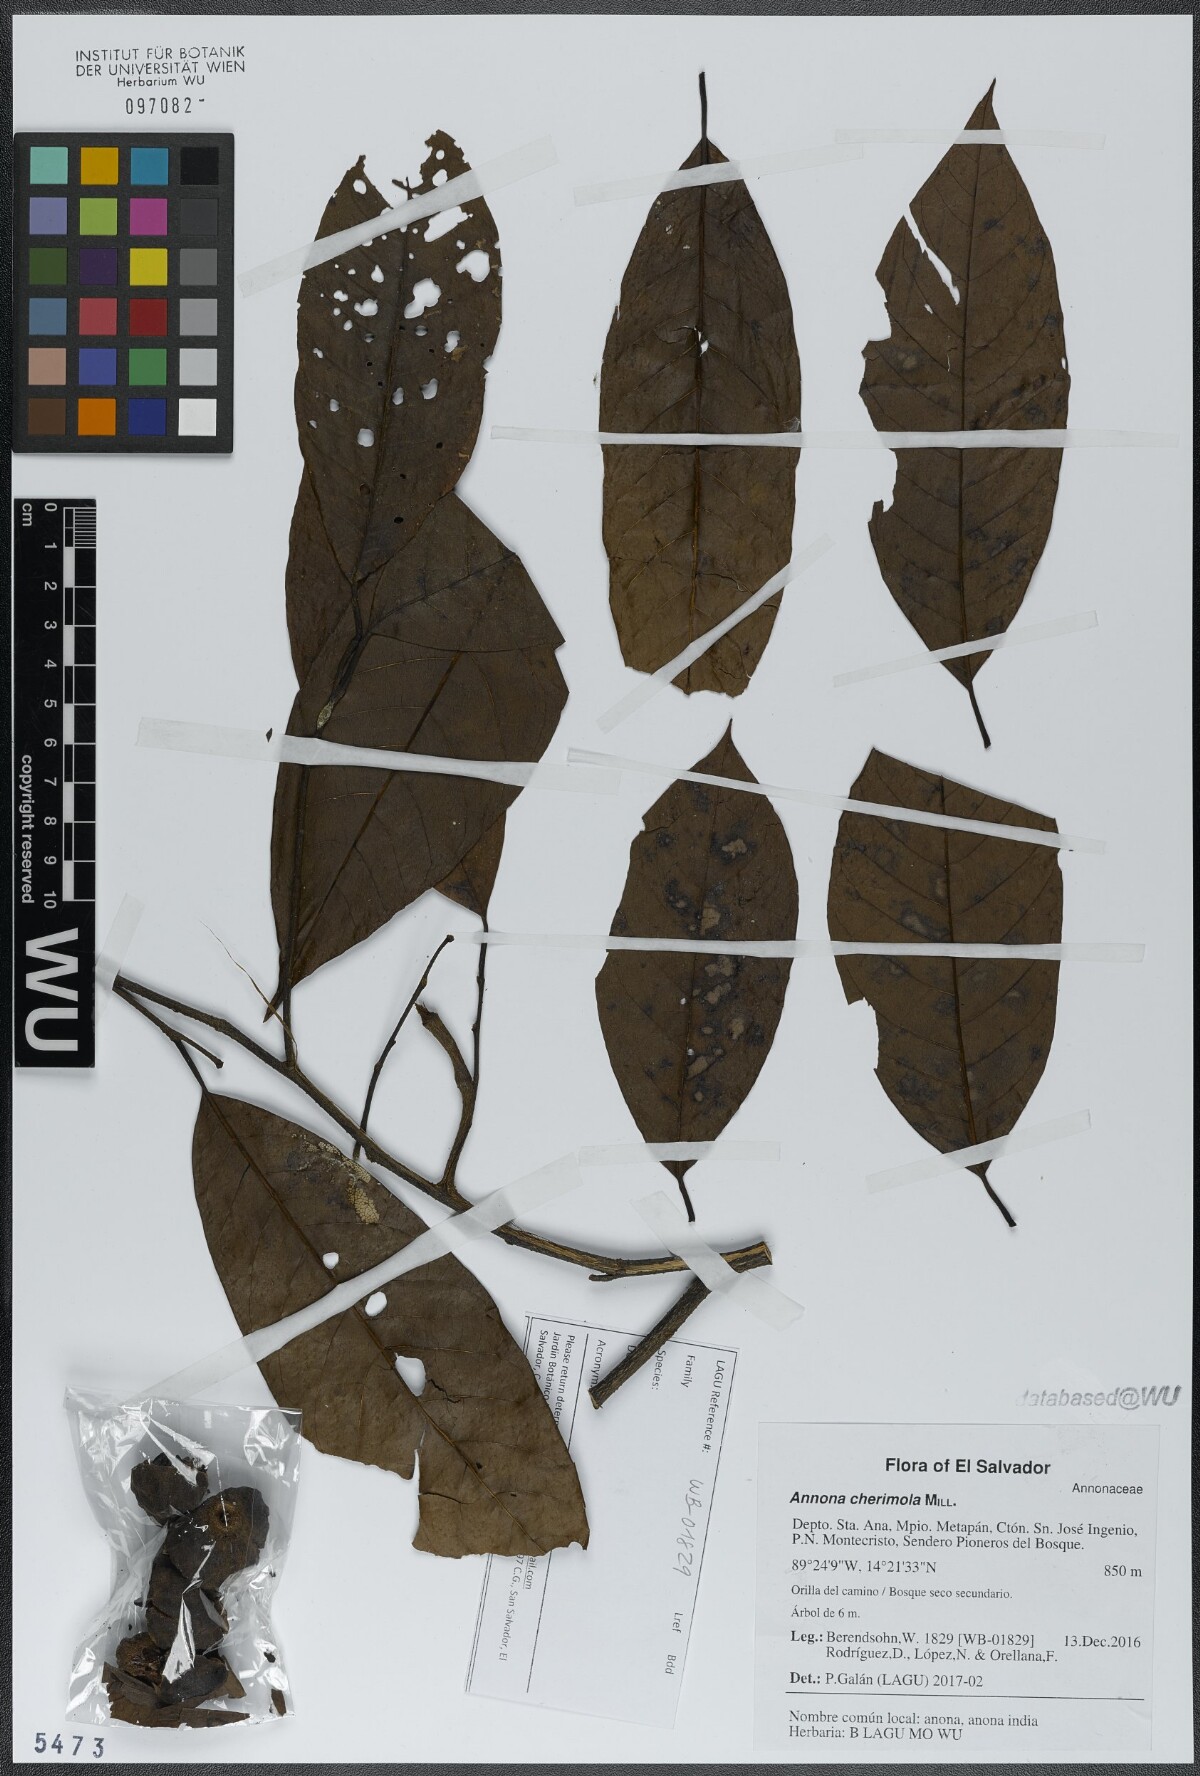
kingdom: Plantae
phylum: Tracheophyta
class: Magnoliopsida
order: Magnoliales
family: Annonaceae
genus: Annona
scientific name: Annona cherimola
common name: Cherimoya
